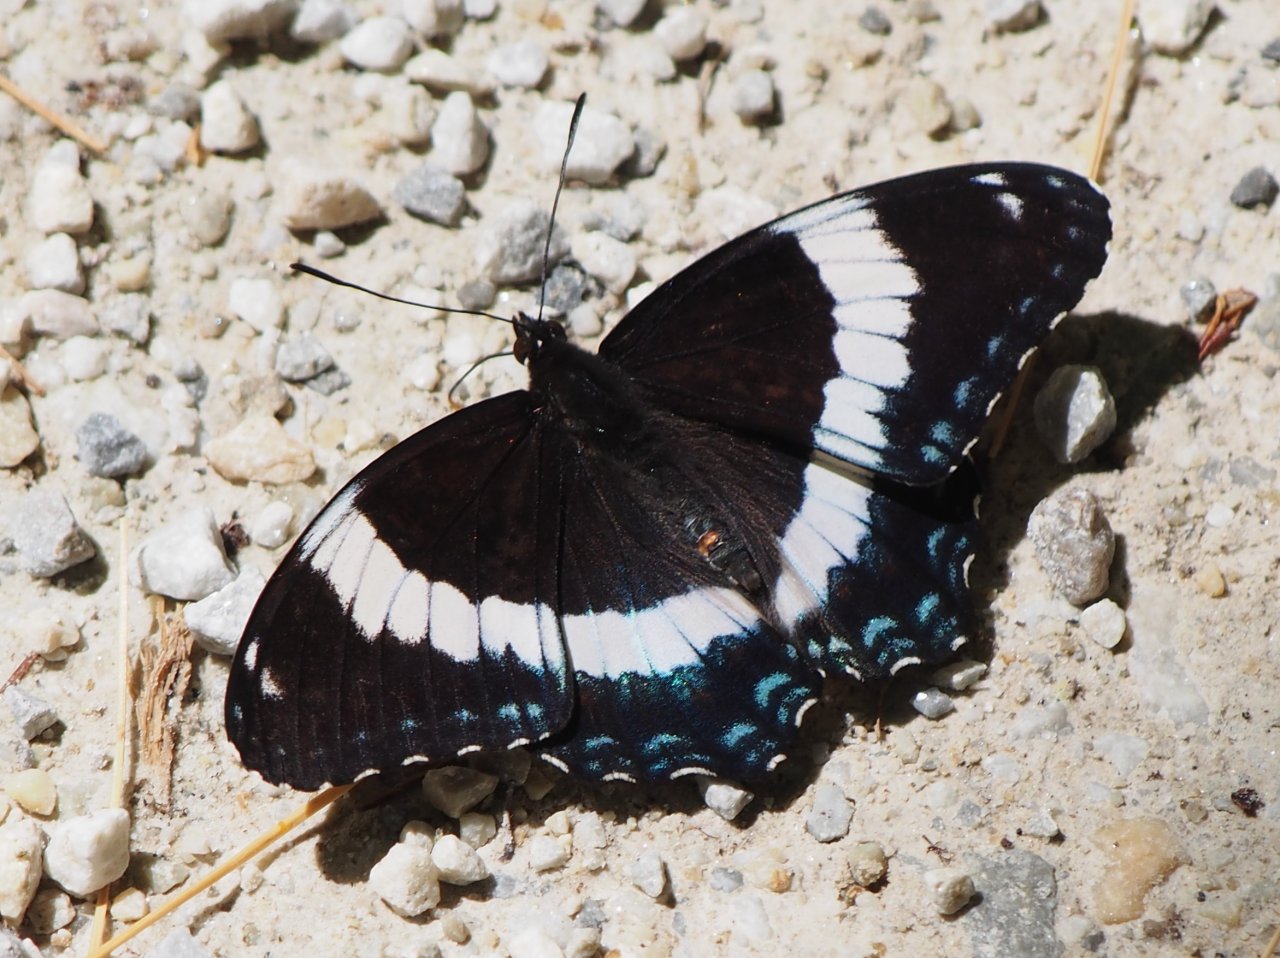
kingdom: Animalia
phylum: Arthropoda
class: Insecta
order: Lepidoptera
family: Nymphalidae
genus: Limenitis
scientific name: Limenitis arthemis
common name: Red-spotted Admiral
